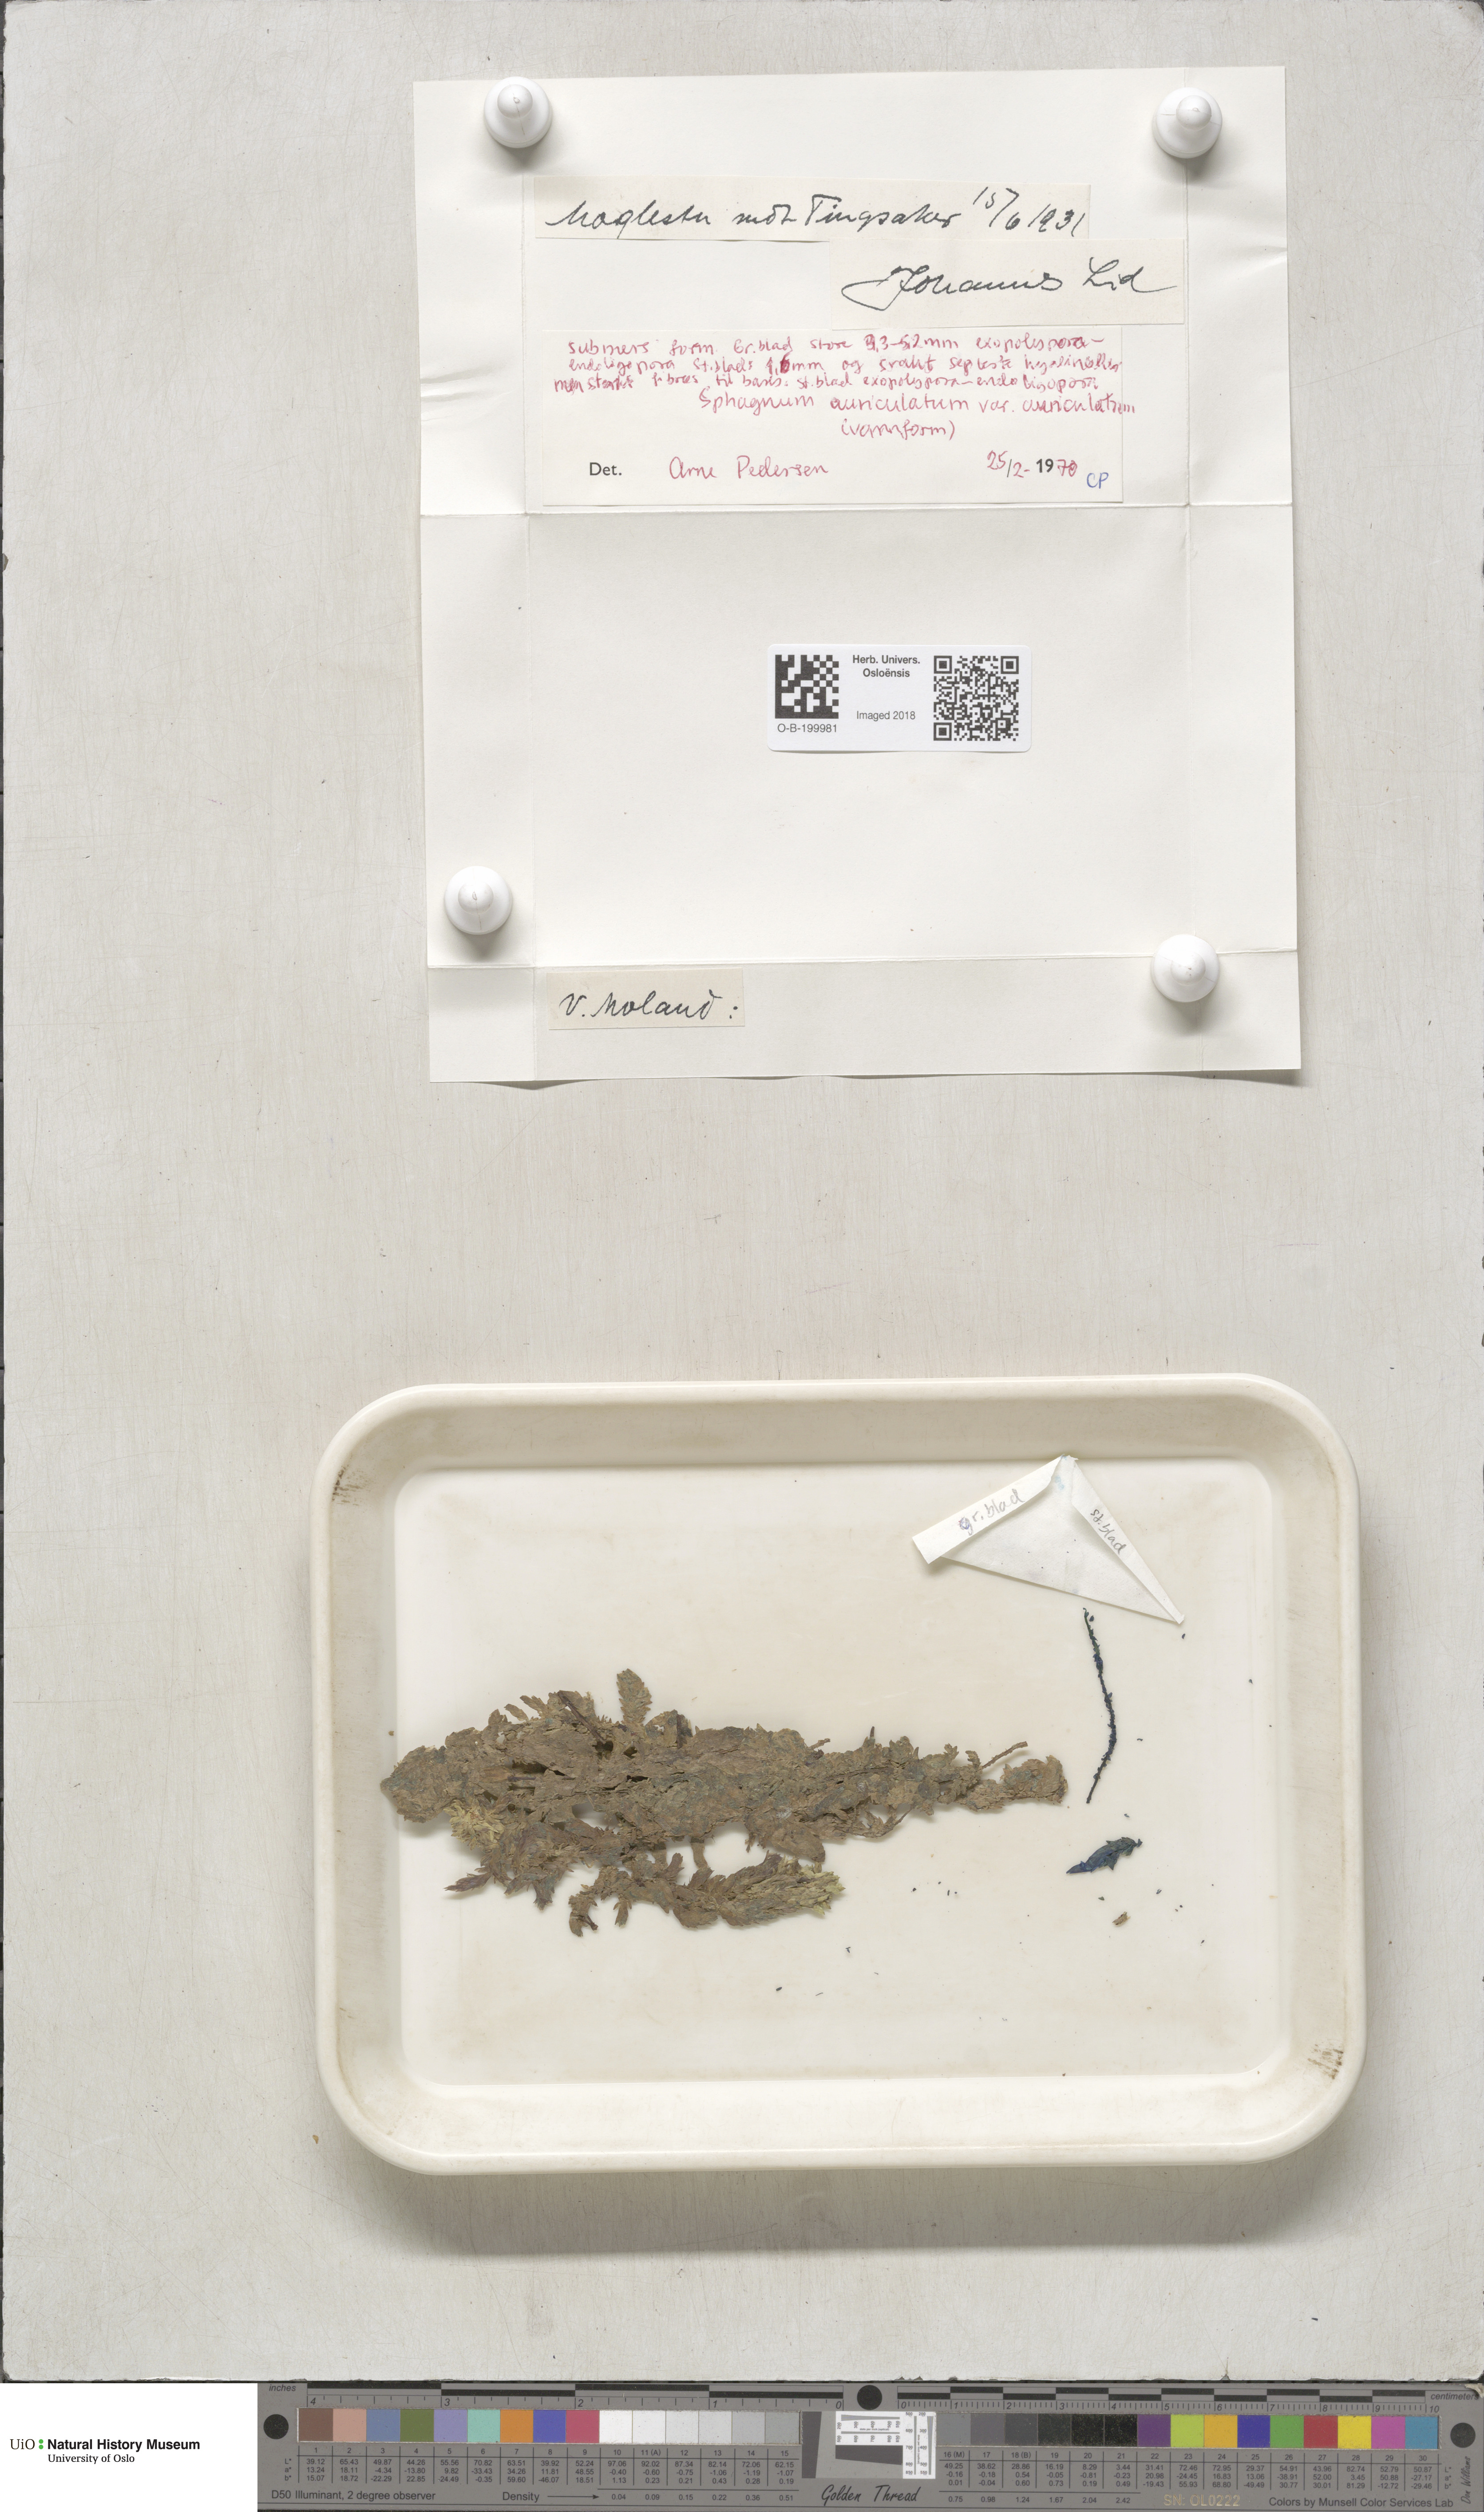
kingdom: Plantae
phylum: Bryophyta
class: Sphagnopsida
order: Sphagnales
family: Sphagnaceae
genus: Sphagnum
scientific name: Sphagnum denticulatum
